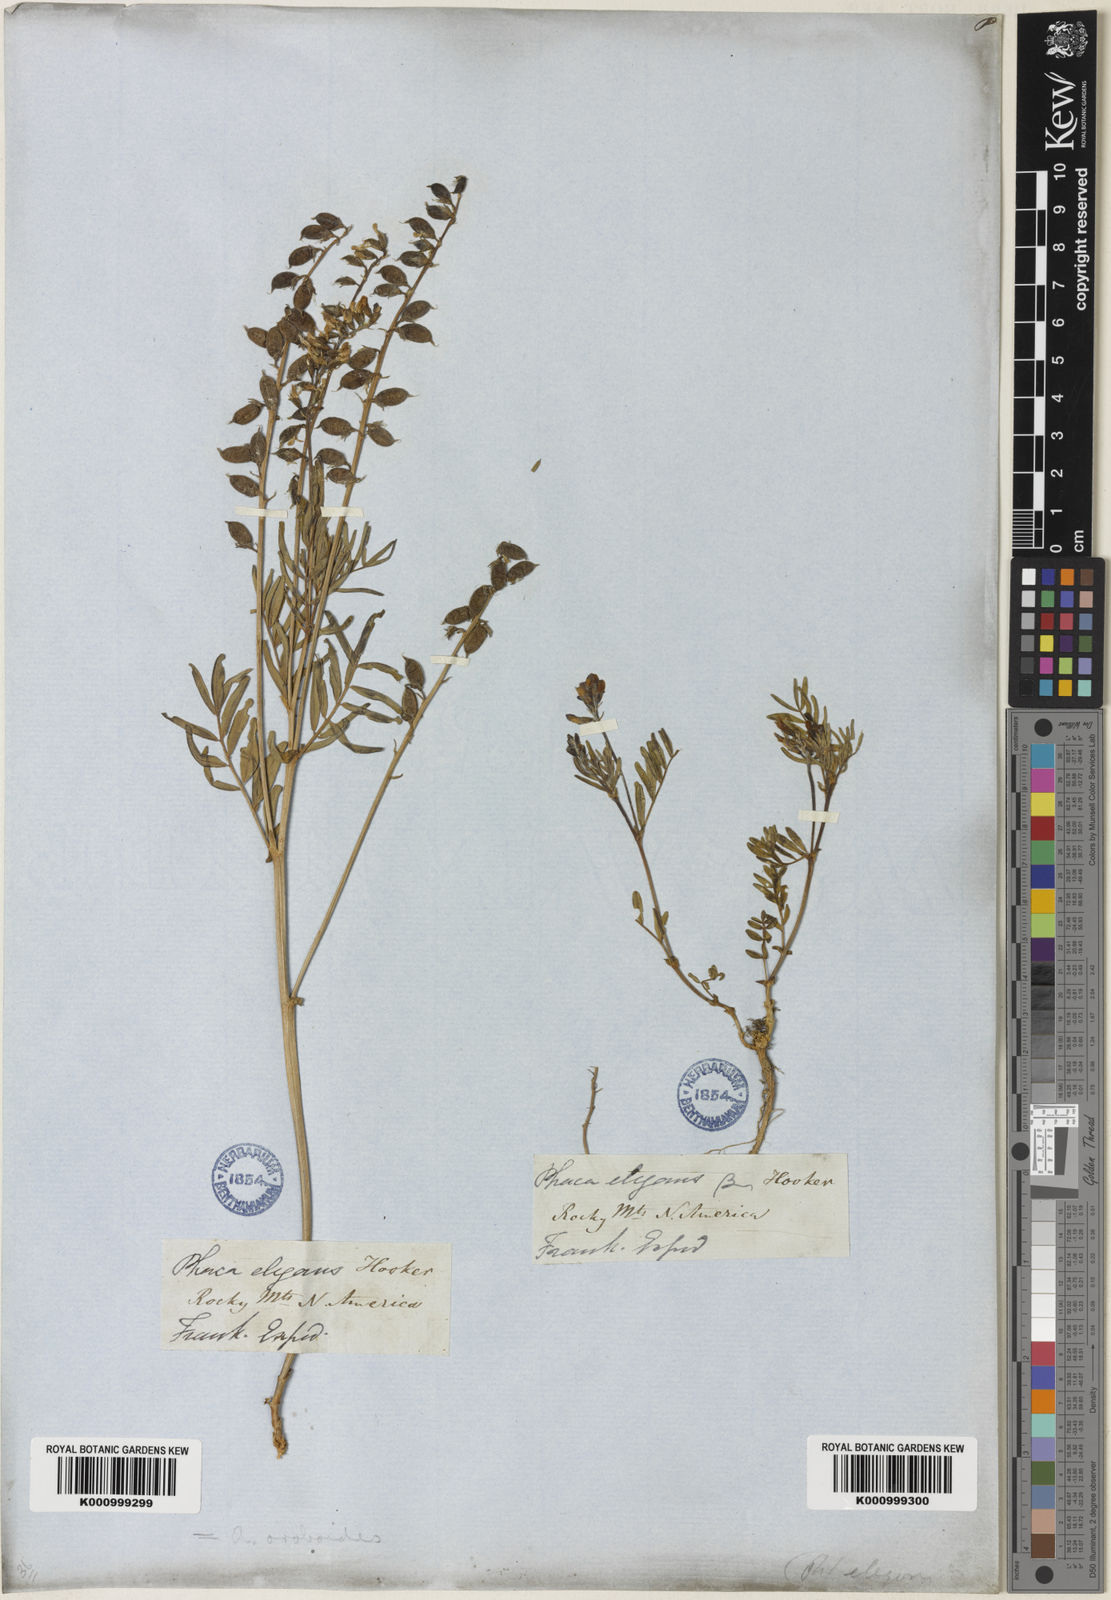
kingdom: Plantae
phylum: Tracheophyta
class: Magnoliopsida
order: Fabales
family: Fabaceae
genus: Astragalus
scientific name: Astragalus norvegicus
